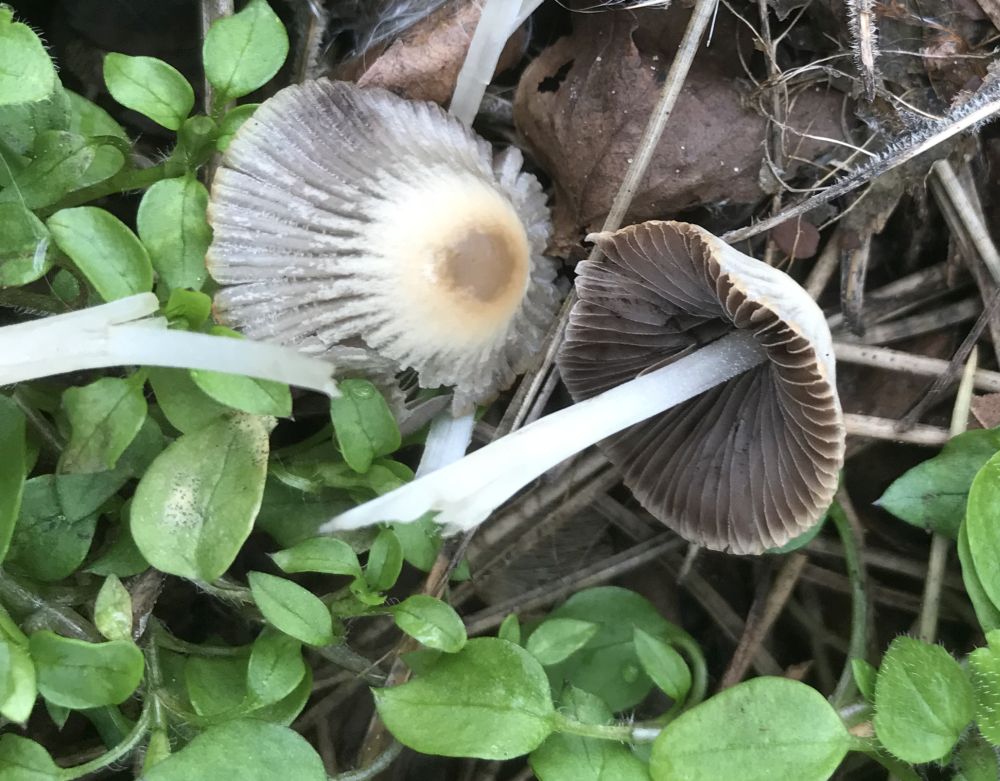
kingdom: Fungi
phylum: Basidiomycota
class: Agaricomycetes
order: Agaricales
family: Psathyrellaceae
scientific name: Psathyrellaceae
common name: mørkhatfamilien
